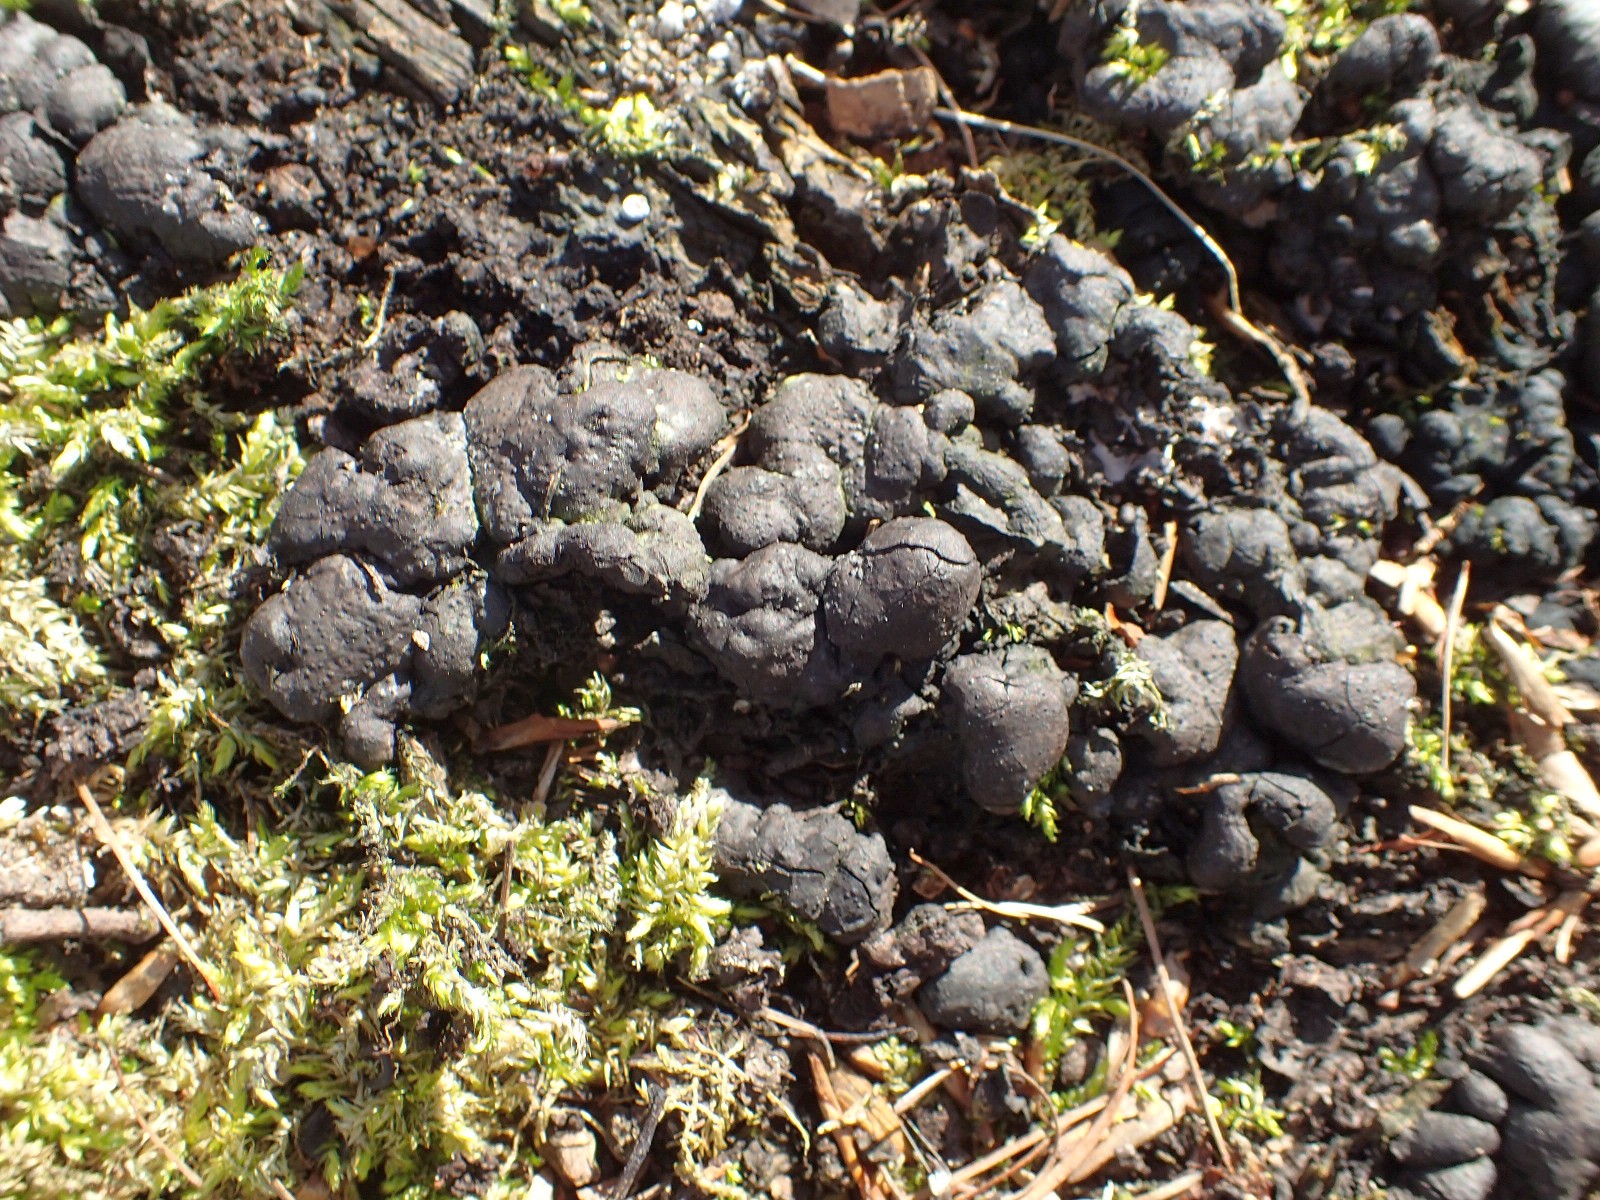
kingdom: Fungi
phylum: Ascomycota
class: Sordariomycetes
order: Xylariales
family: Xylariaceae
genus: Kretzschmaria
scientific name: Kretzschmaria deusta
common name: stor kulsvamp
